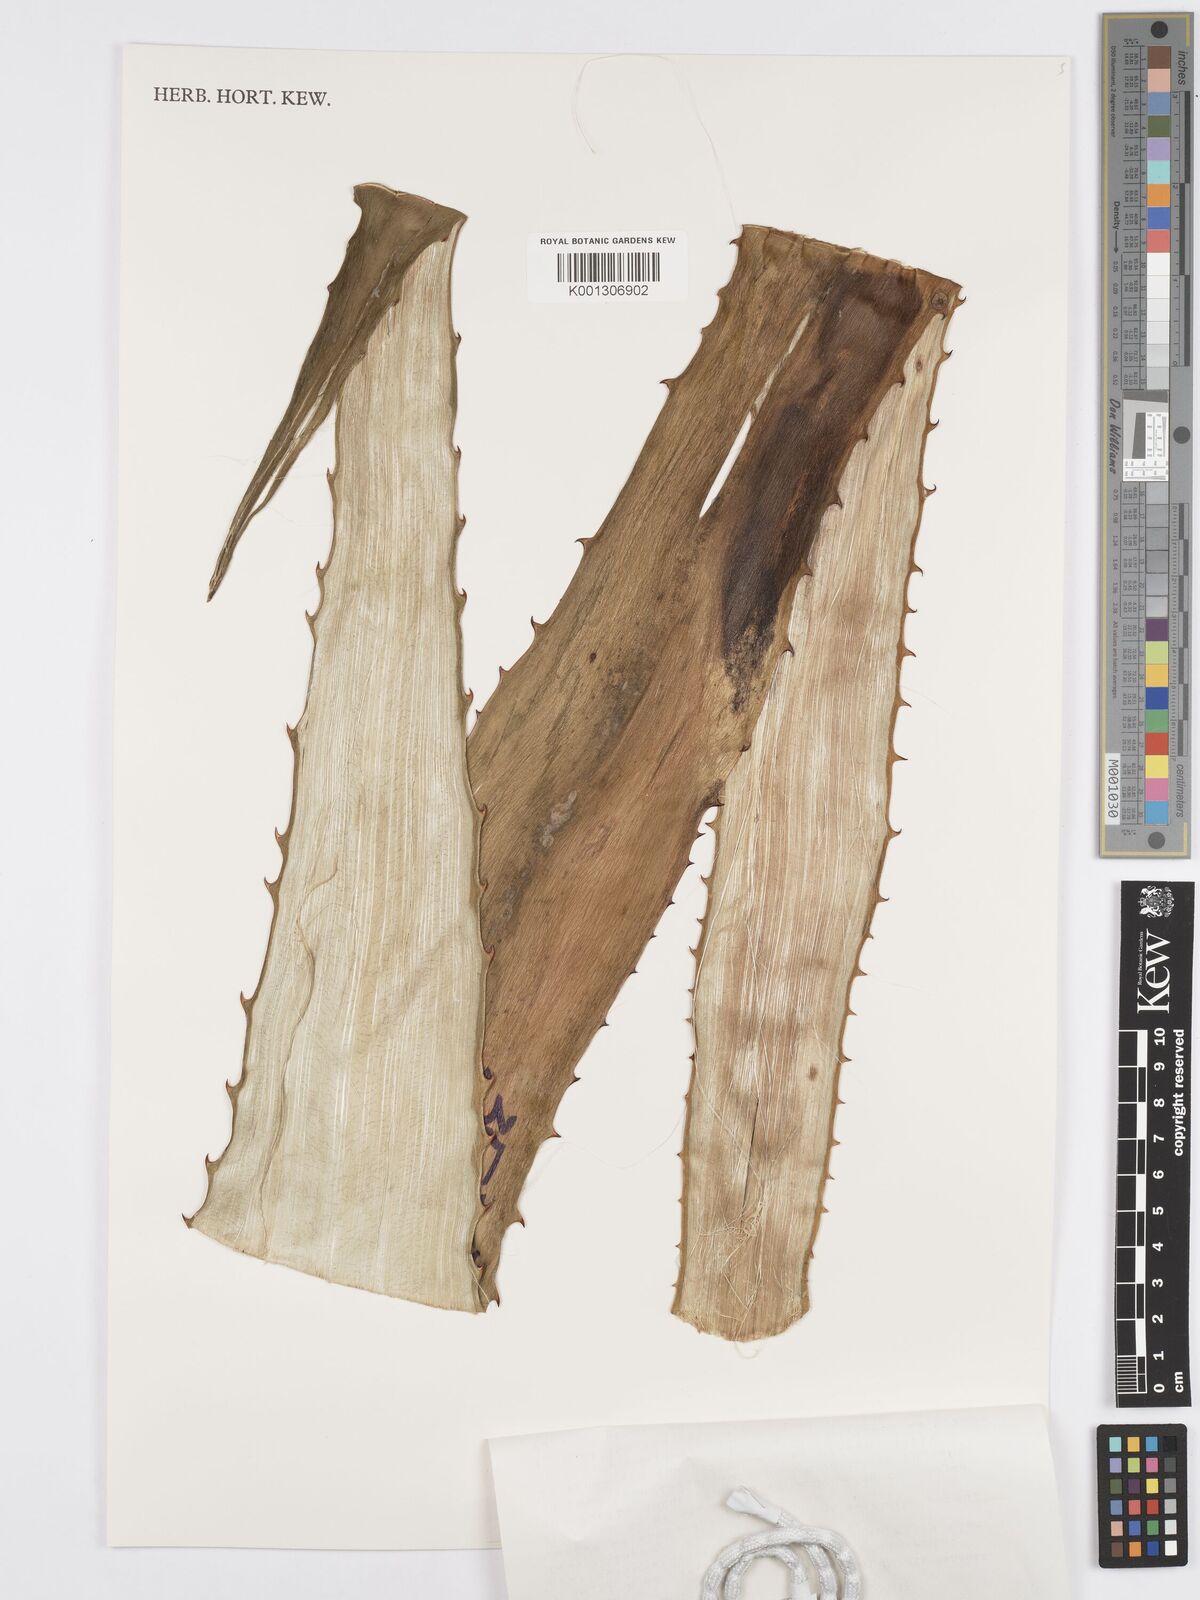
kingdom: Plantae
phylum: Tracheophyta
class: Liliopsida
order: Asparagales
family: Asparagaceae
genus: Furcraea
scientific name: Furcraea guatemalensis
